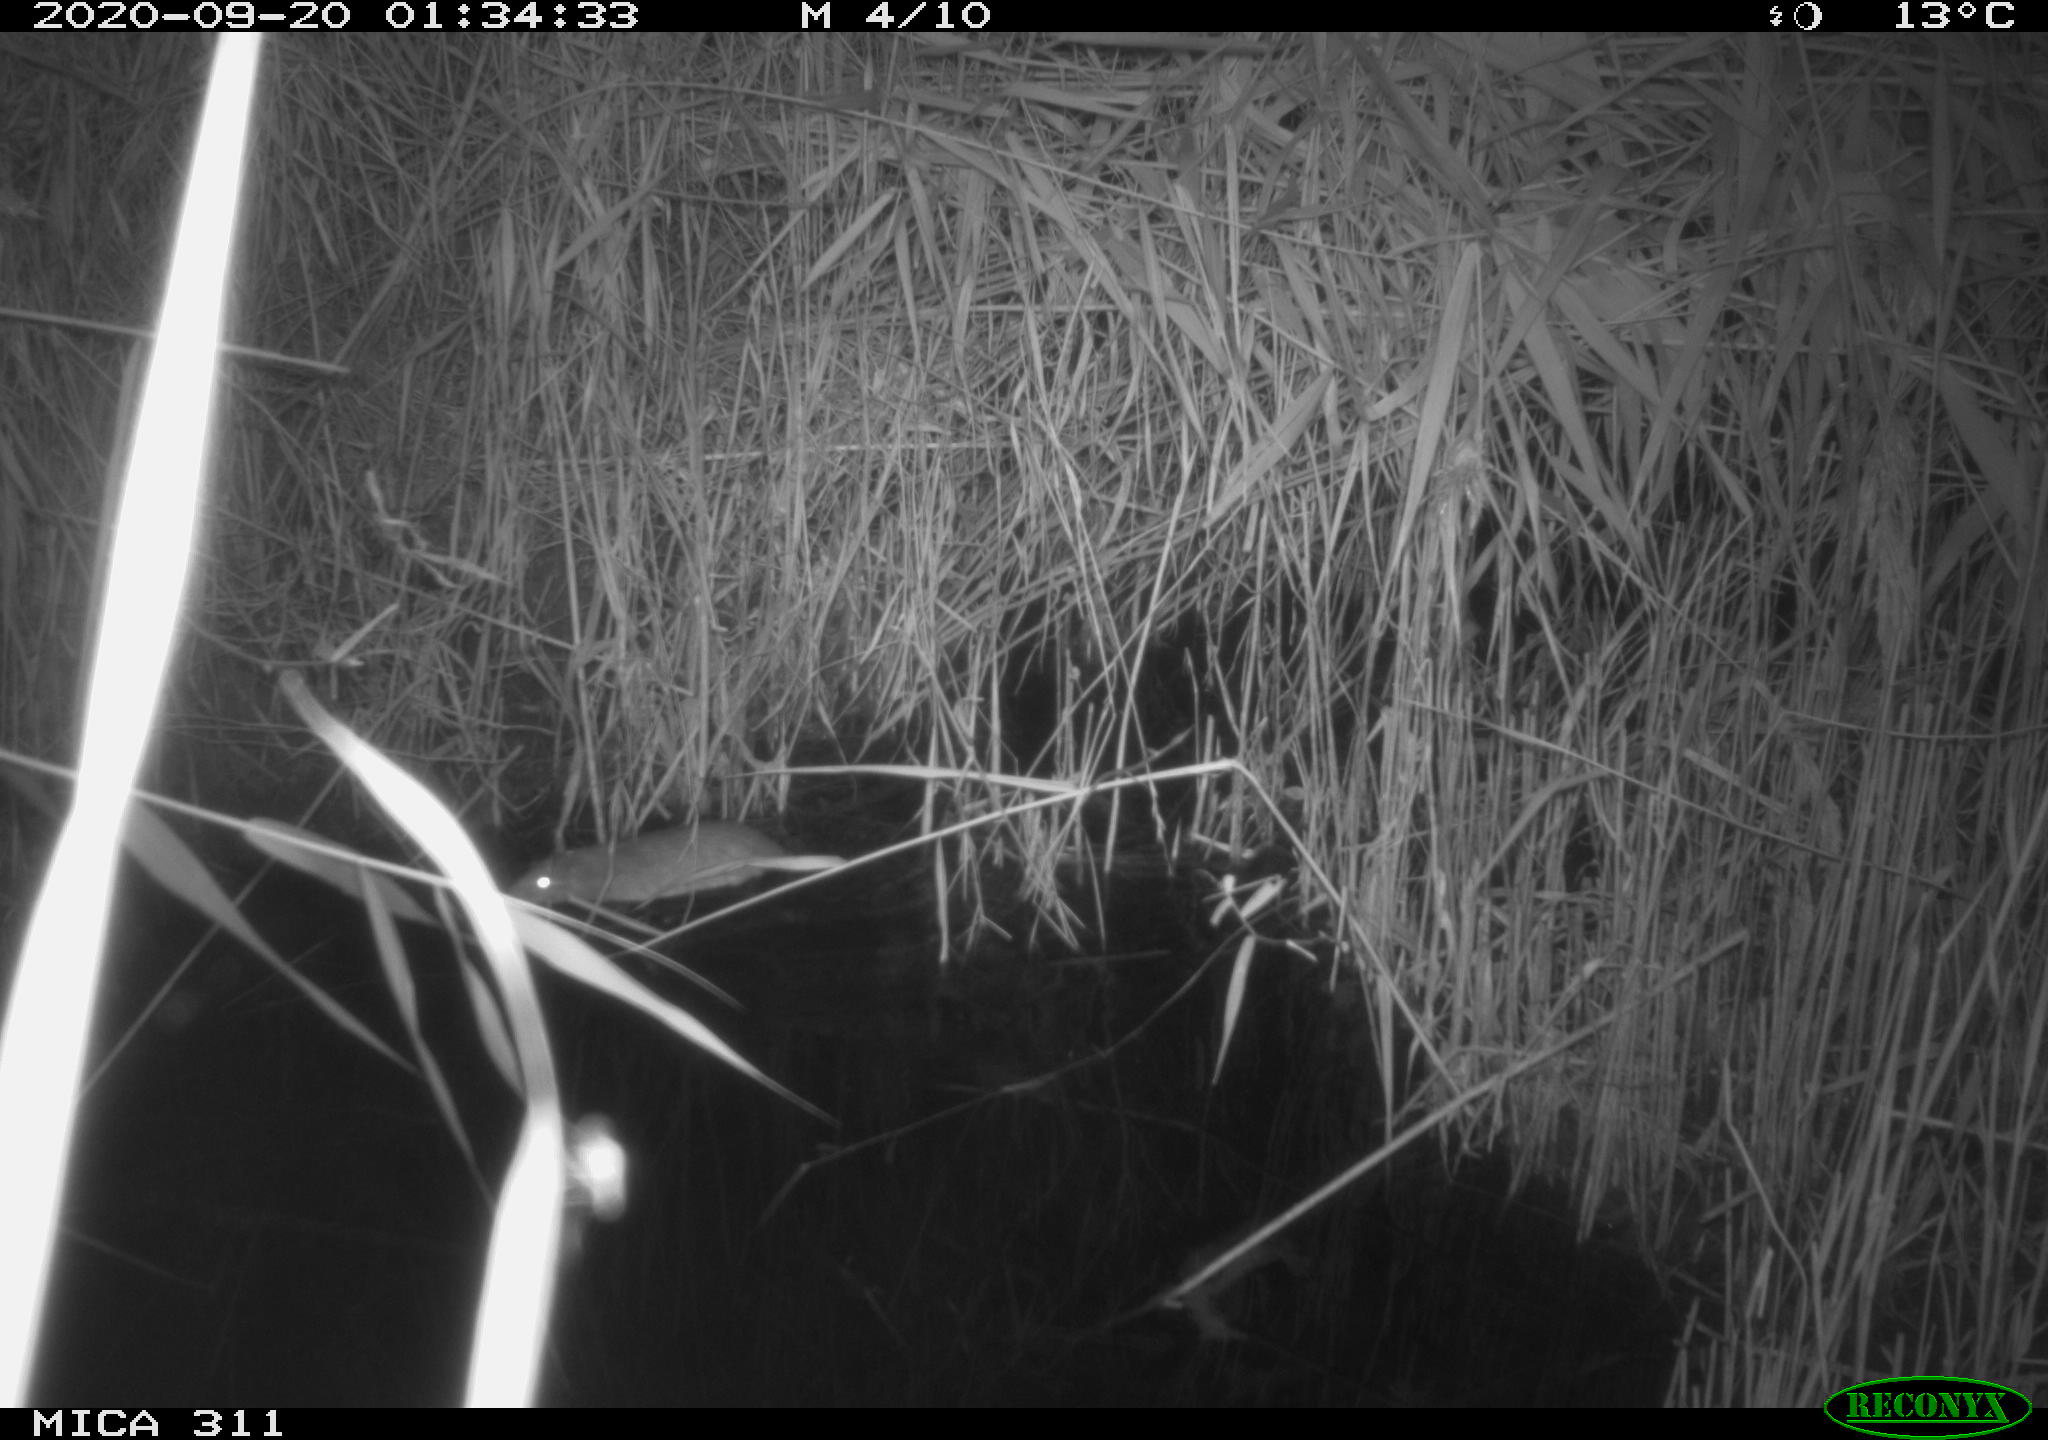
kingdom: Animalia
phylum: Chordata
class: Mammalia
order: Rodentia
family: Muridae
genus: Rattus
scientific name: Rattus norvegicus
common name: Brown rat
